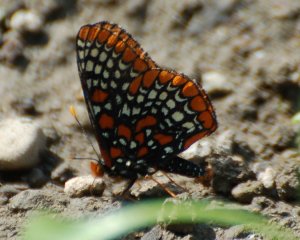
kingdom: Animalia
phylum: Arthropoda
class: Insecta
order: Lepidoptera
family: Nymphalidae
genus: Euphydryas
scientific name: Euphydryas phaeton
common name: Baltimore Checkerspot
